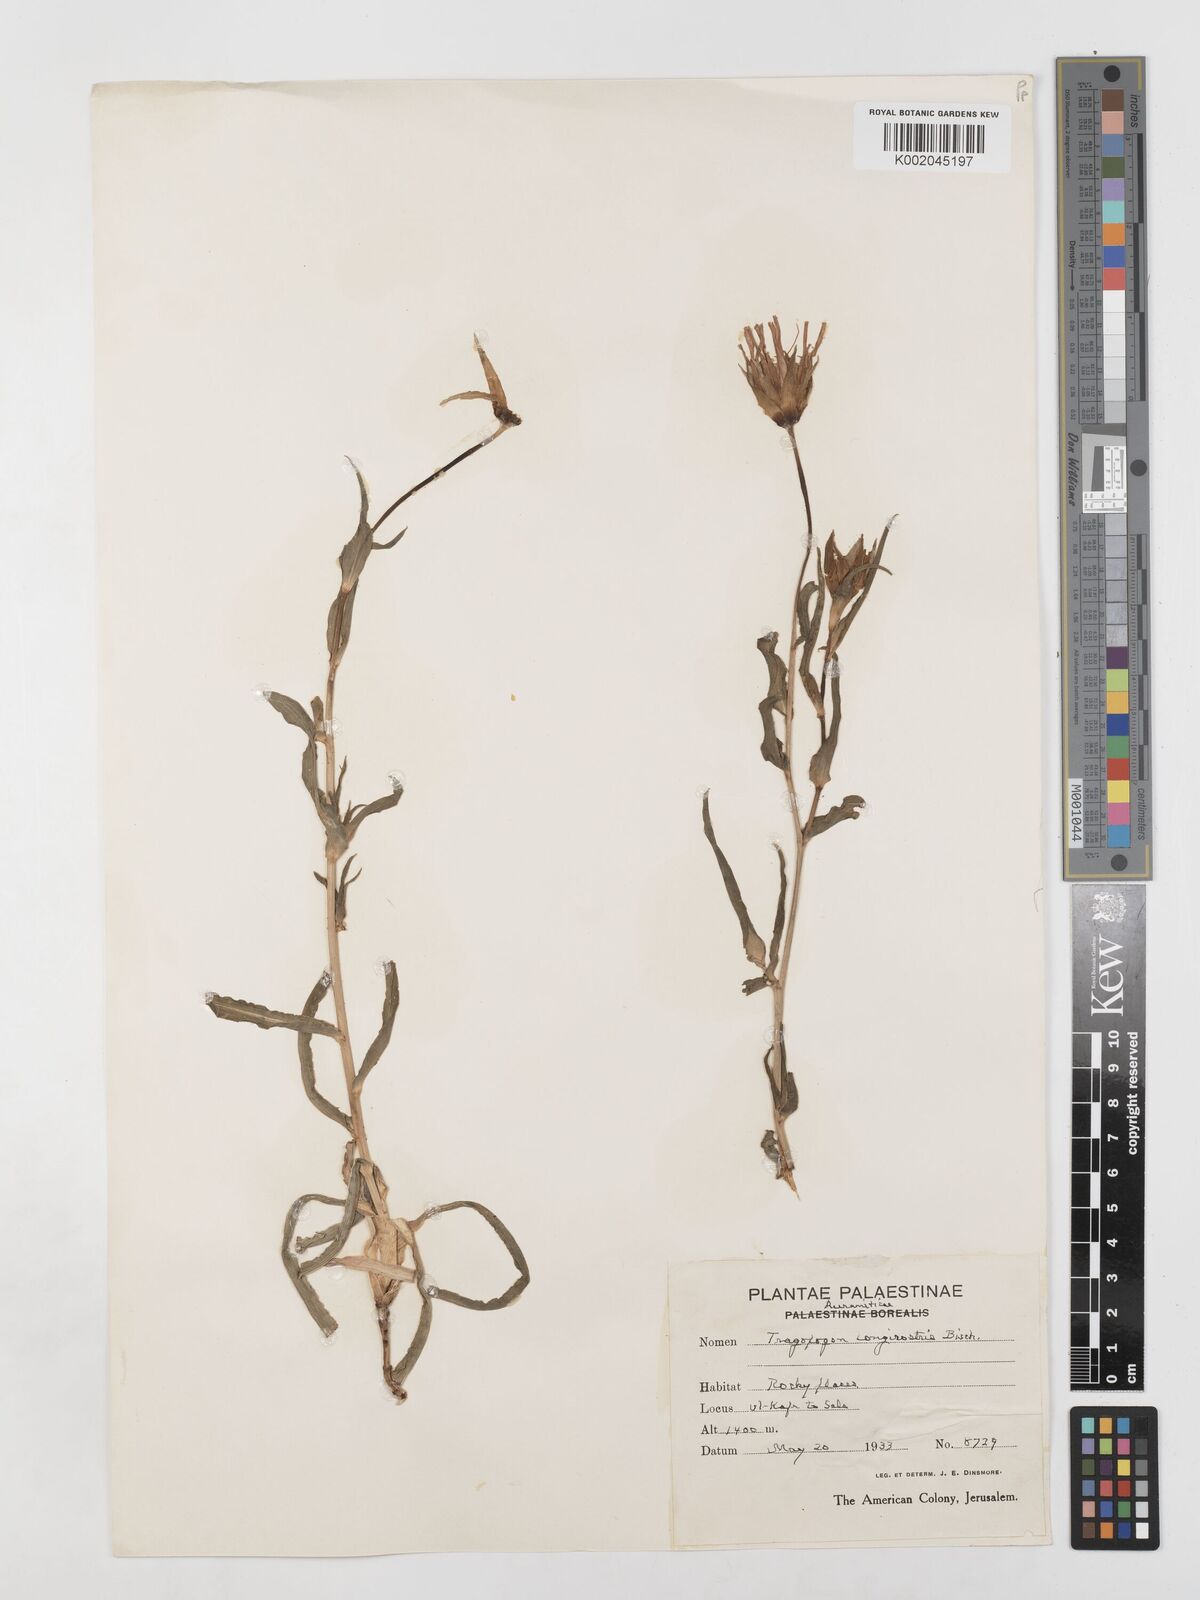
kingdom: Plantae
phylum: Tracheophyta
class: Magnoliopsida
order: Asterales
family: Asteraceae
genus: Tragopogon
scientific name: Tragopogon coelesyriacus
